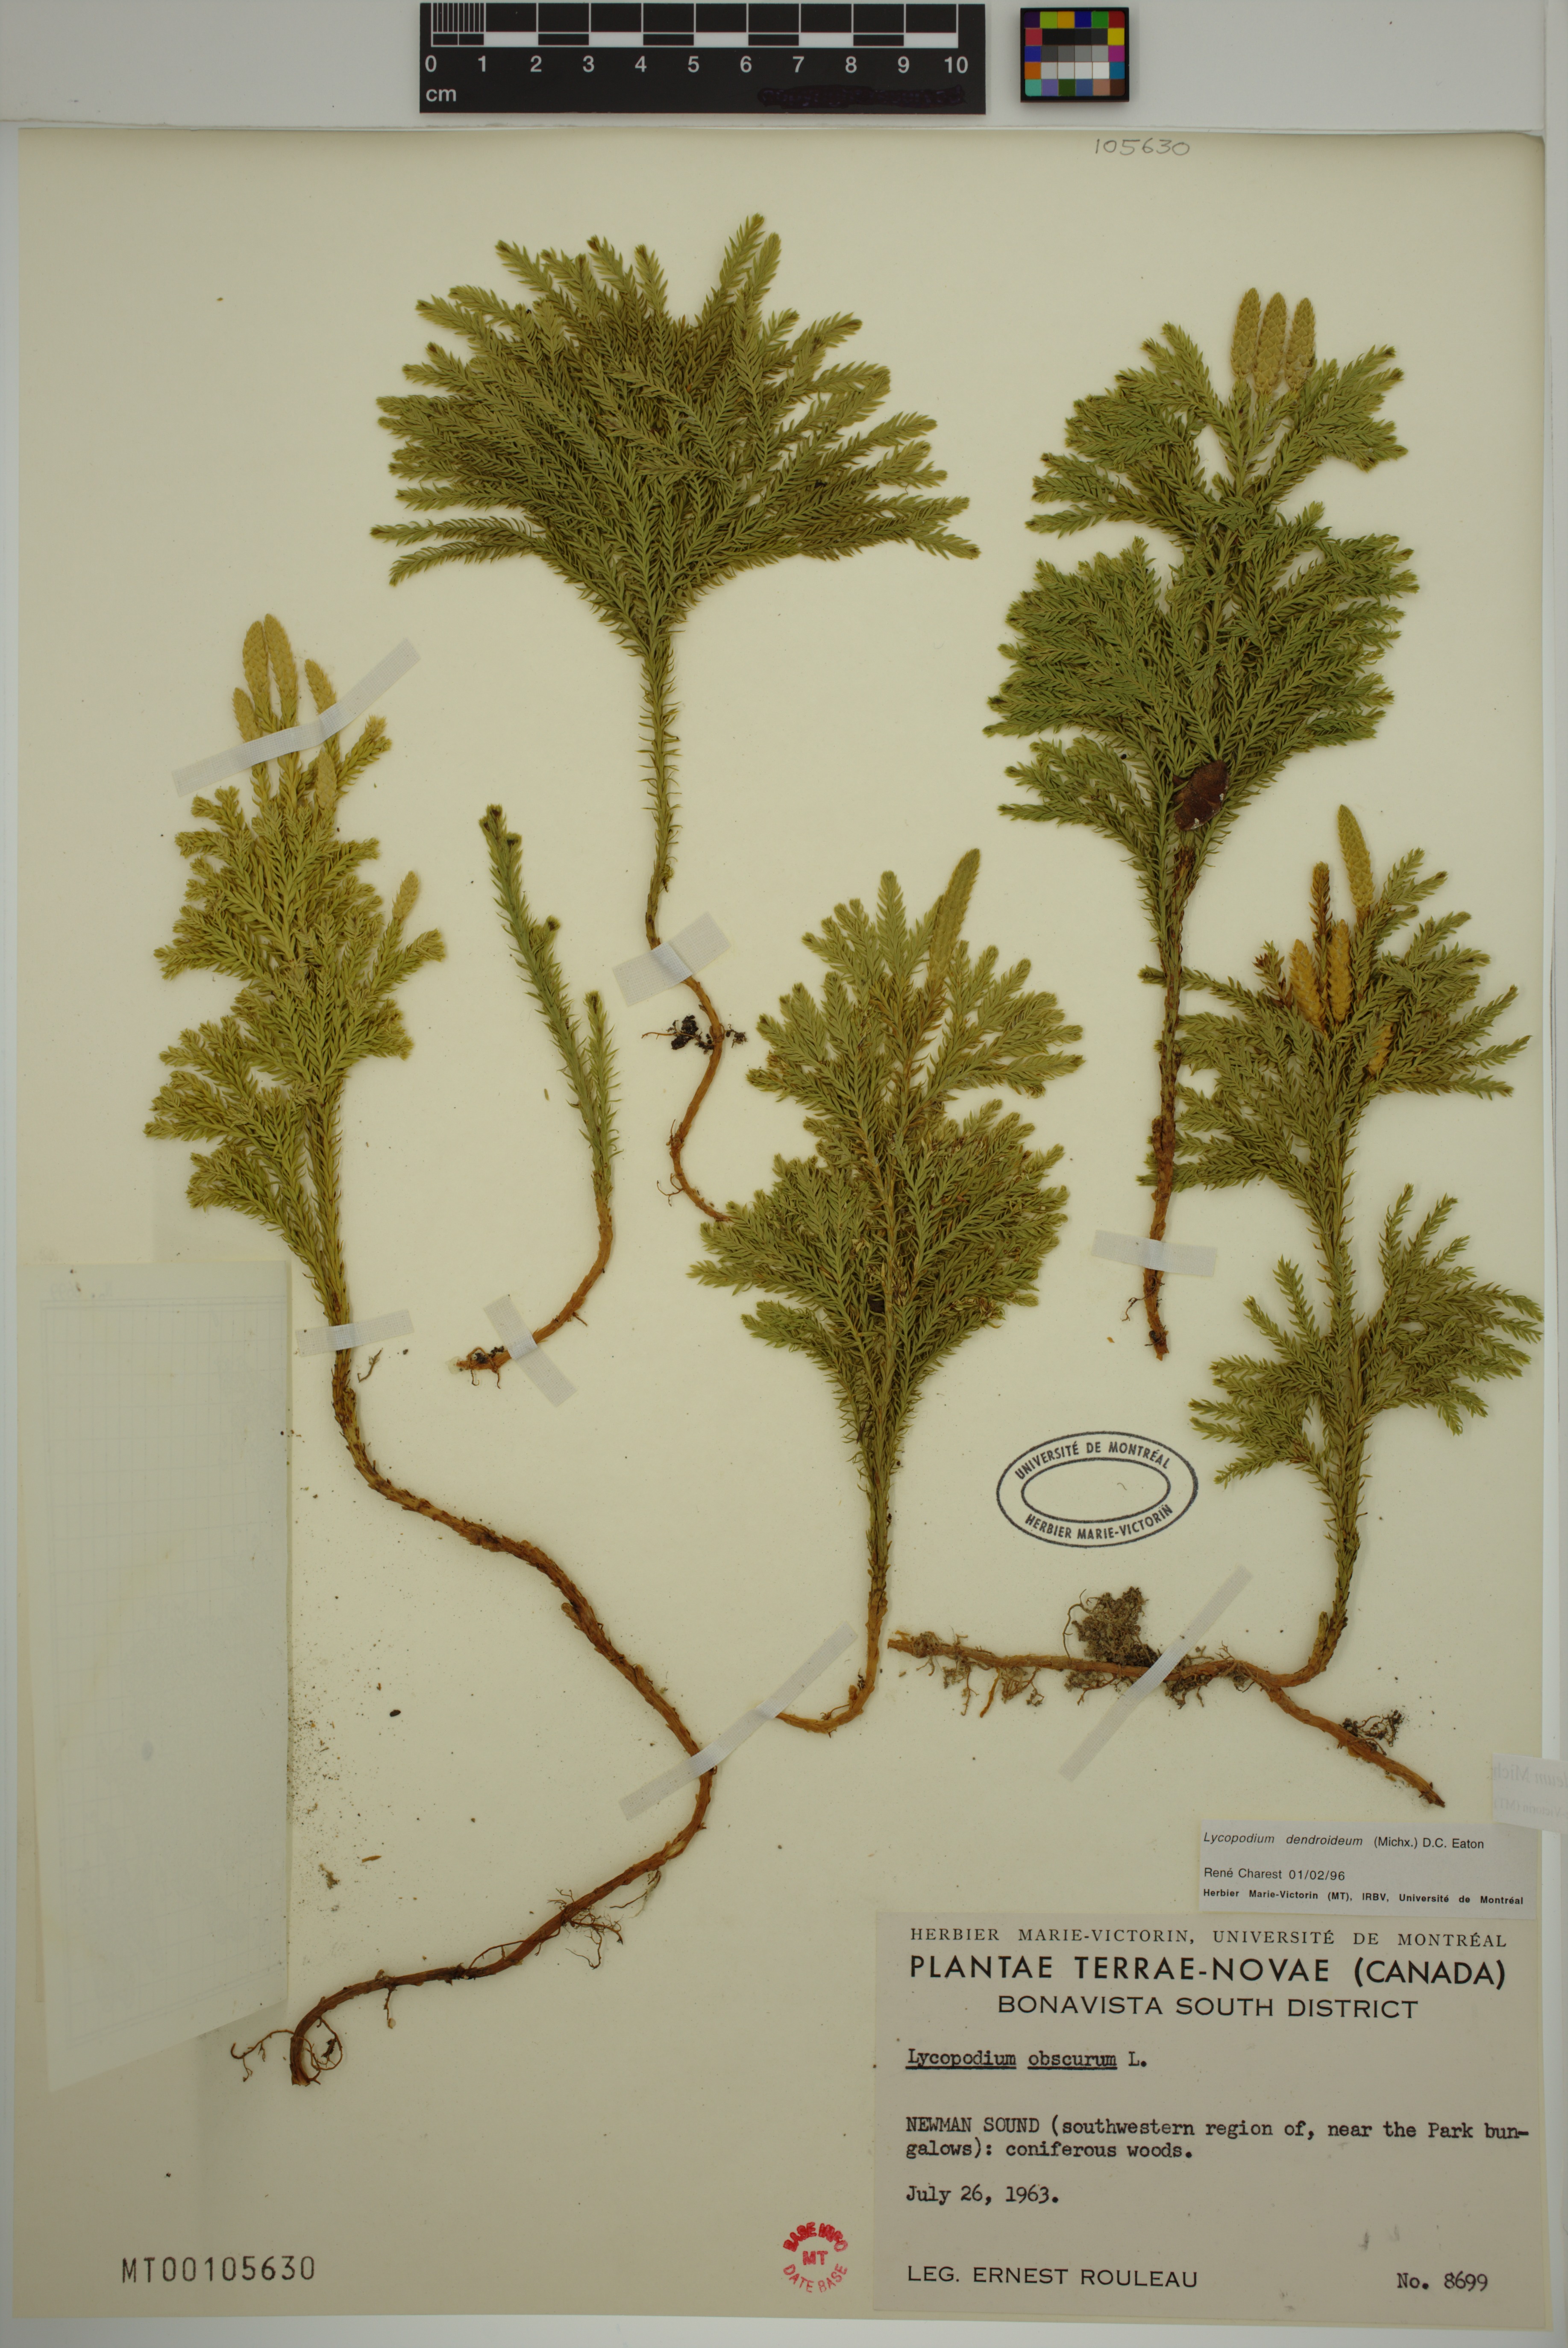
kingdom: Plantae
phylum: Tracheophyta
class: Lycopodiopsida
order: Lycopodiales
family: Lycopodiaceae
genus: Dendrolycopodium
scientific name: Dendrolycopodium dendroideum
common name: Northern tree-clubmoss
